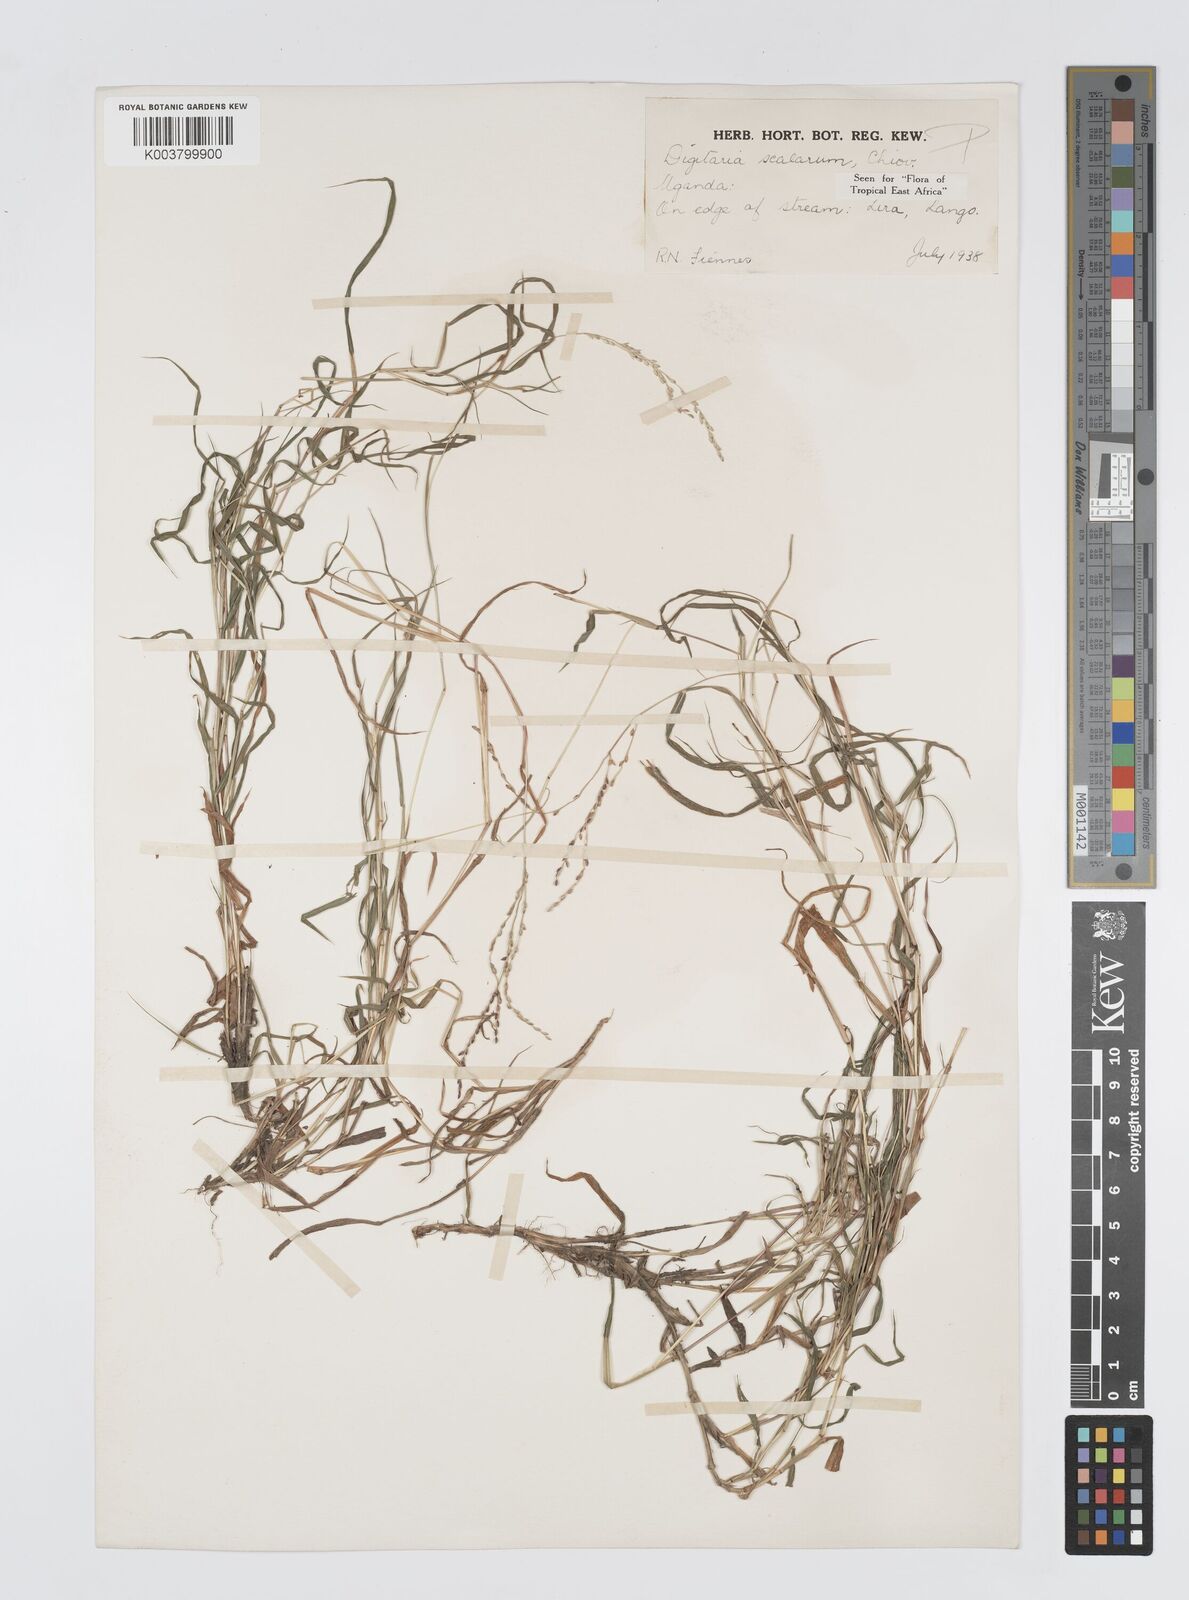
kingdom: Plantae
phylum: Tracheophyta
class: Liliopsida
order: Poales
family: Poaceae
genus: Digitaria
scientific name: Digitaria abyssinica
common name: African couchgrass
